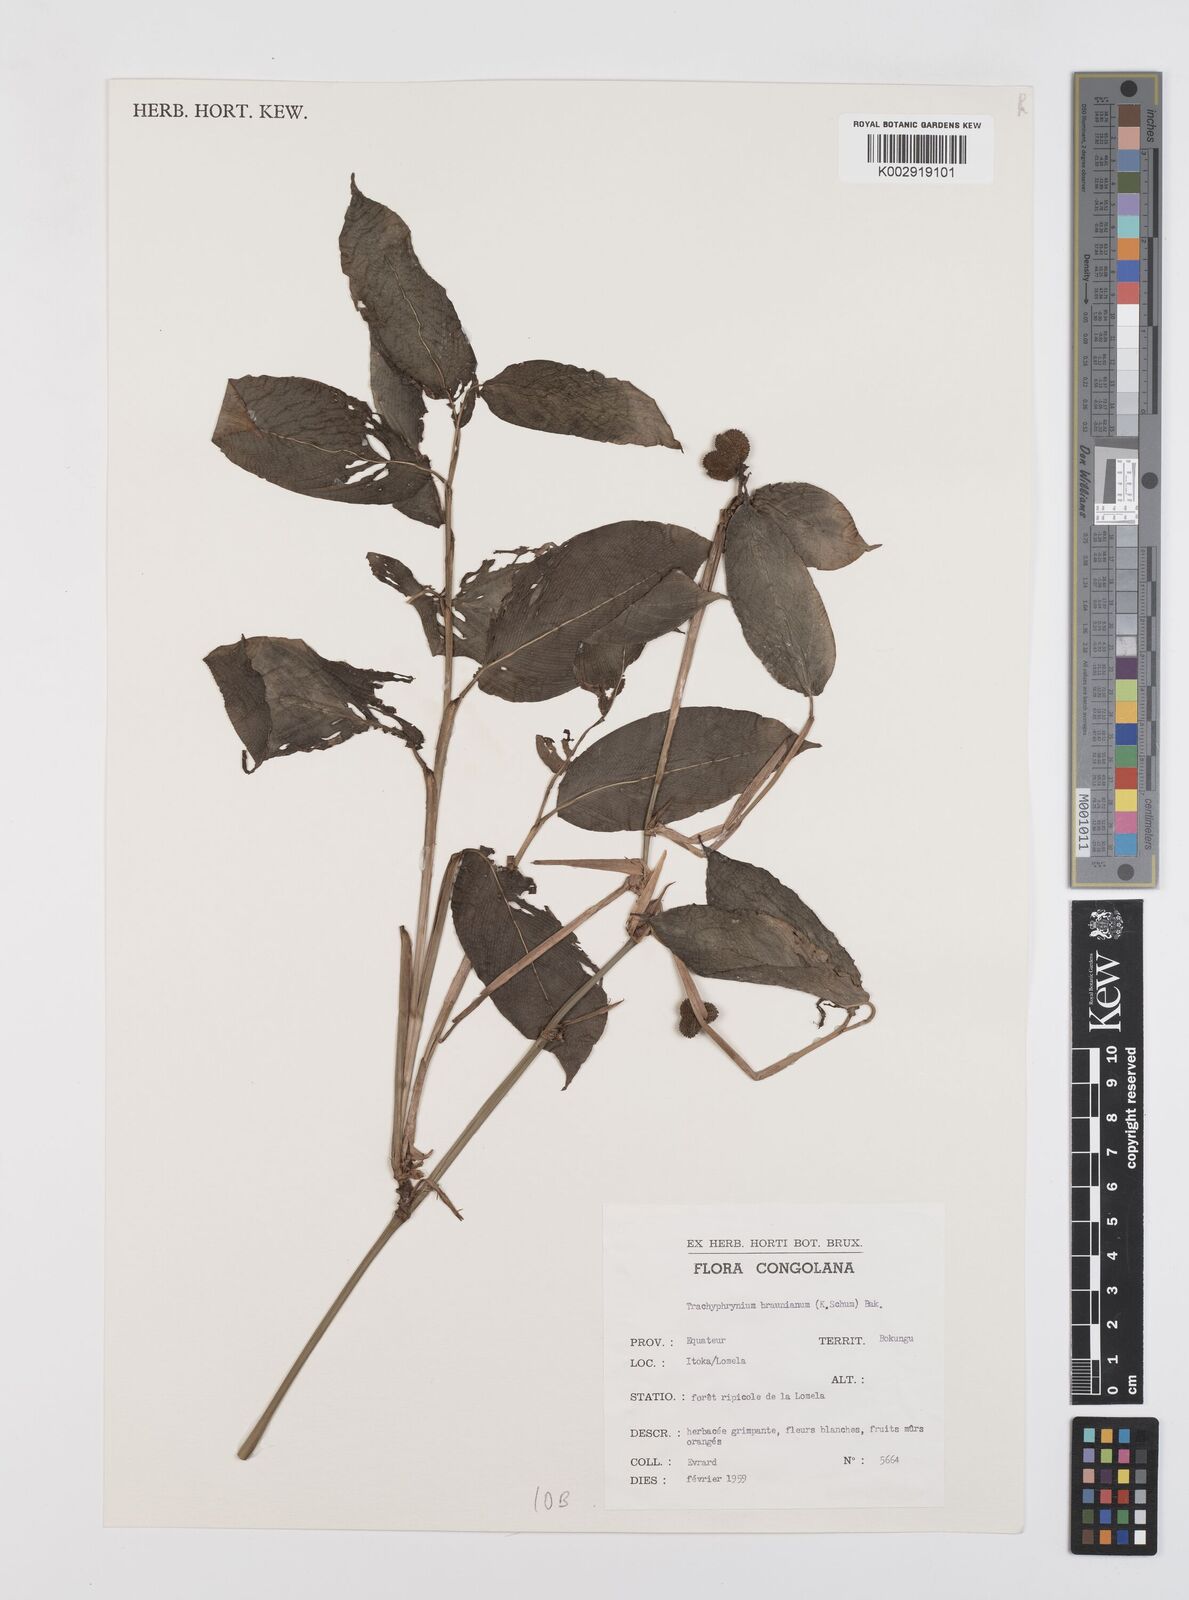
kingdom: Plantae
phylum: Tracheophyta
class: Liliopsida
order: Zingiberales
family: Marantaceae
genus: Trachyphrynium
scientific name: Trachyphrynium braunianum
